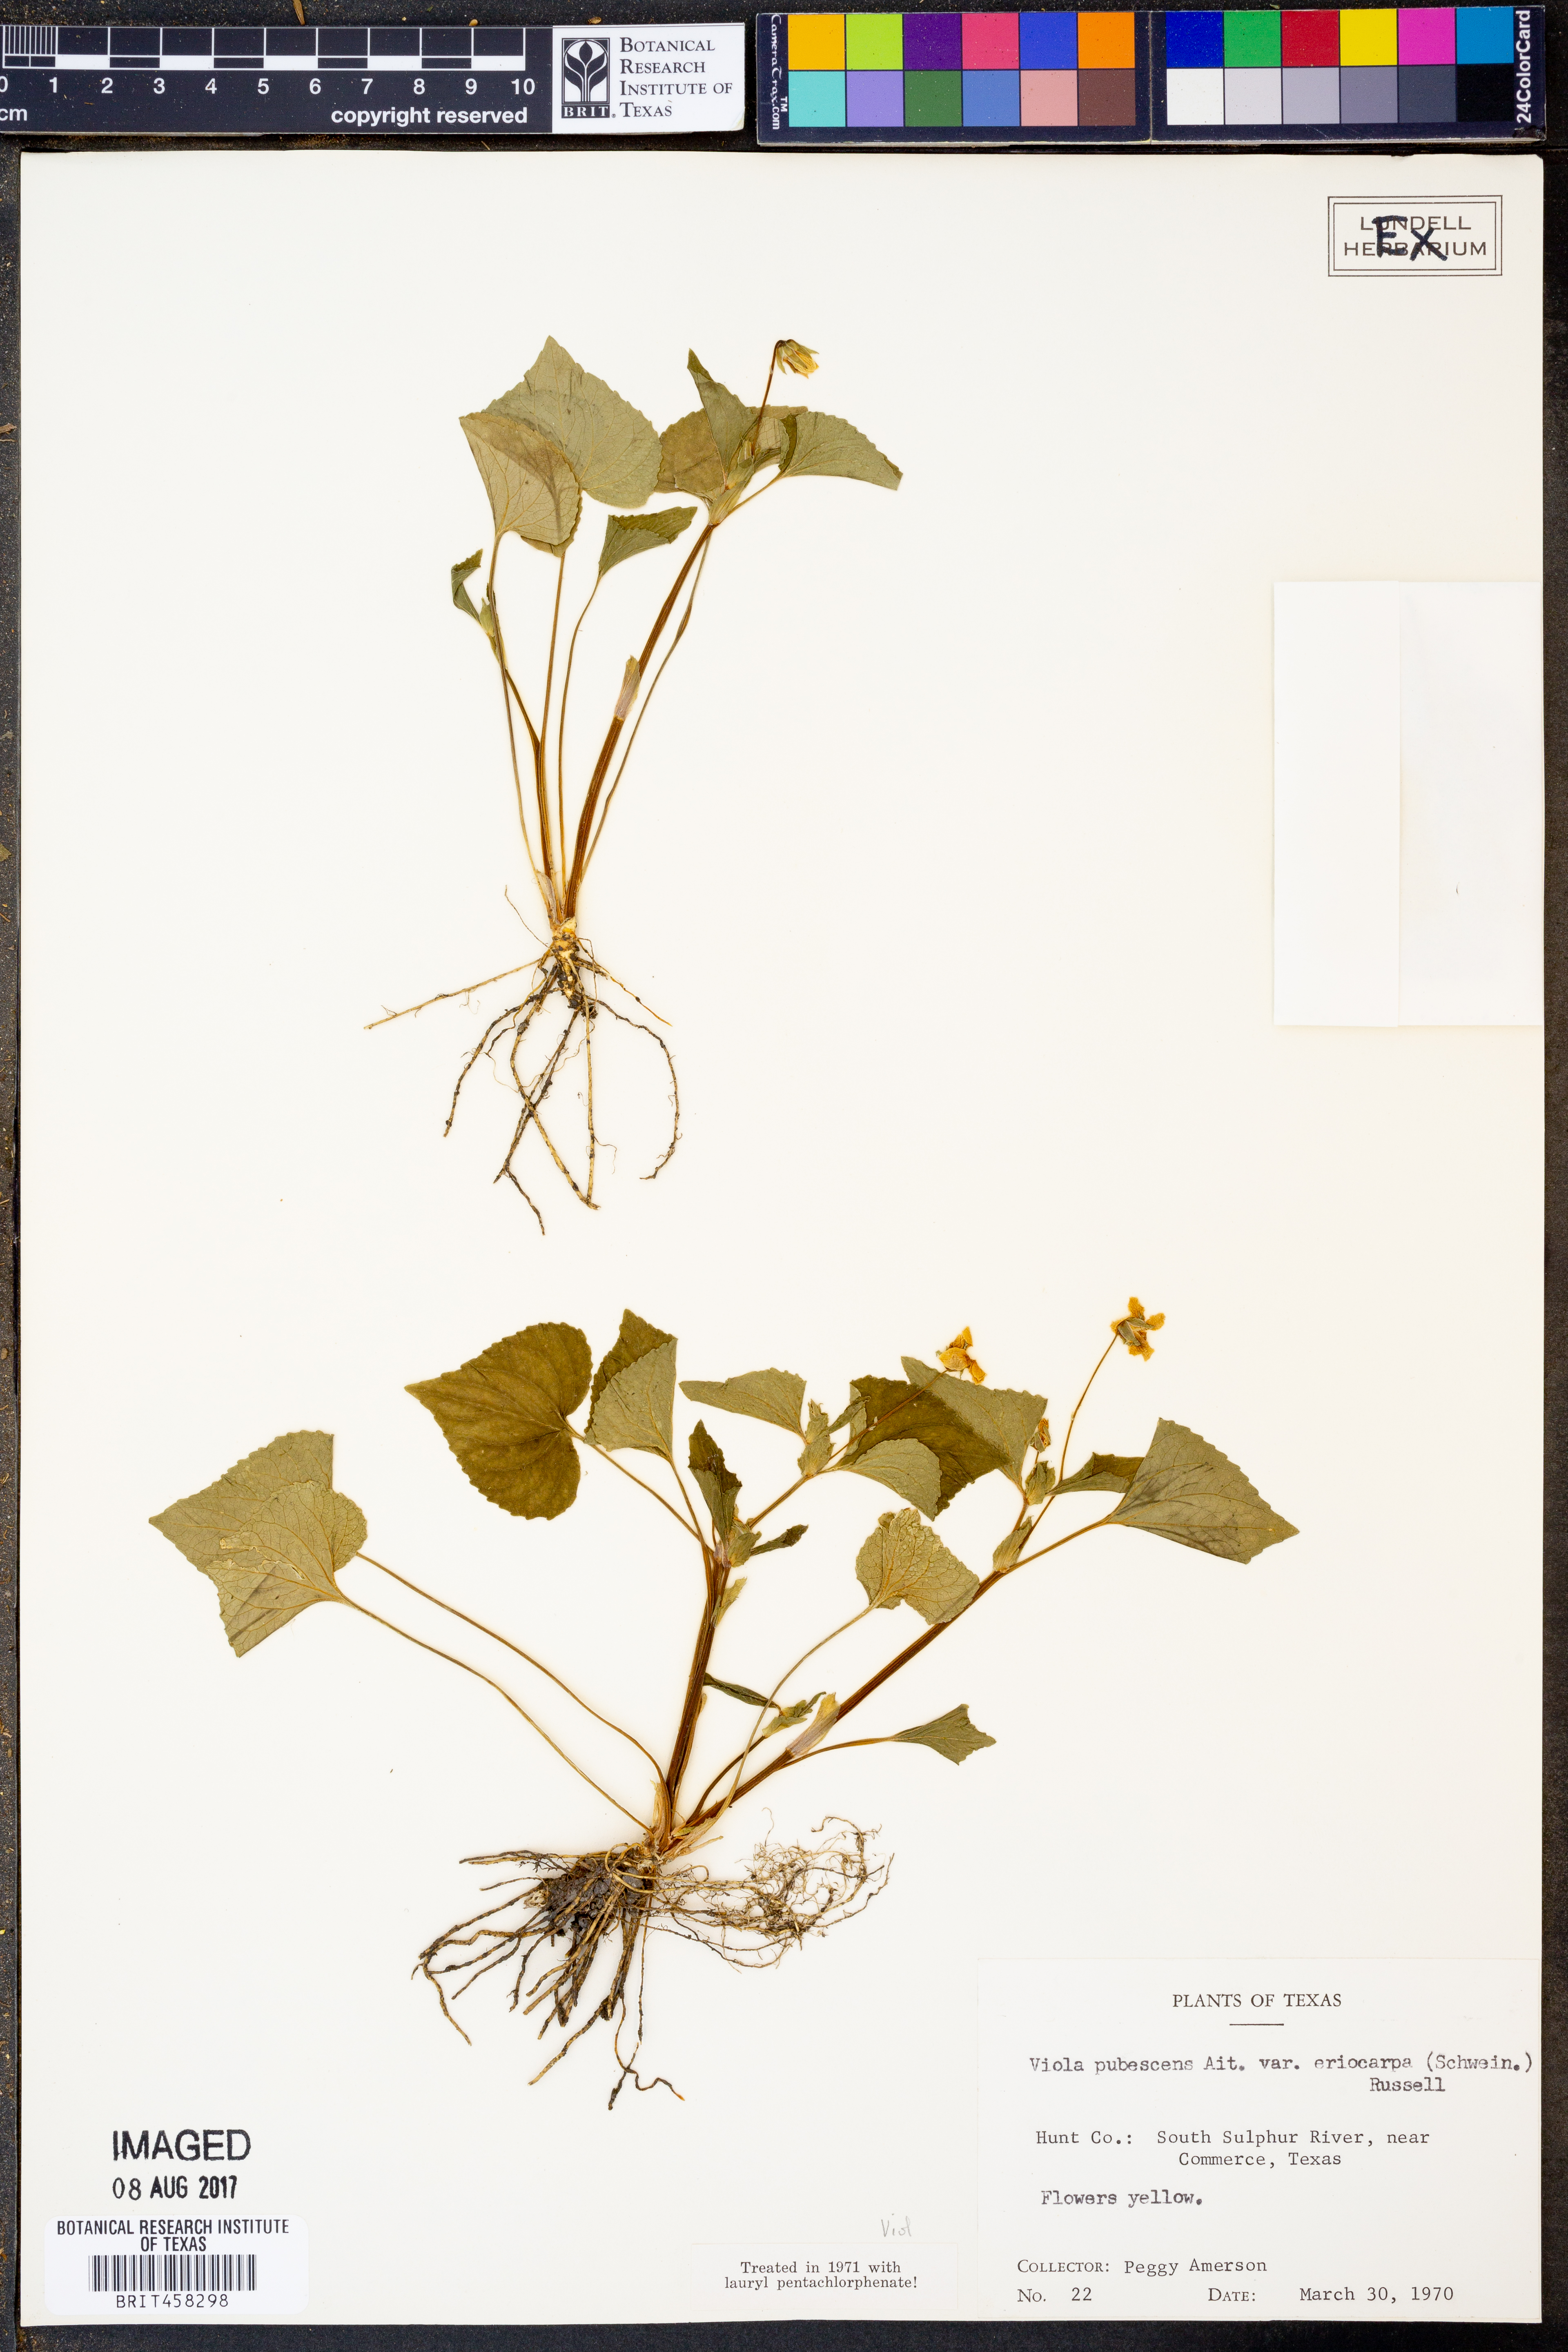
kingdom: Plantae
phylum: Tracheophyta
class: Magnoliopsida
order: Malpighiales
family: Violaceae
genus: Viola
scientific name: Viola eriocarpa
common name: Smooth yellow violet
